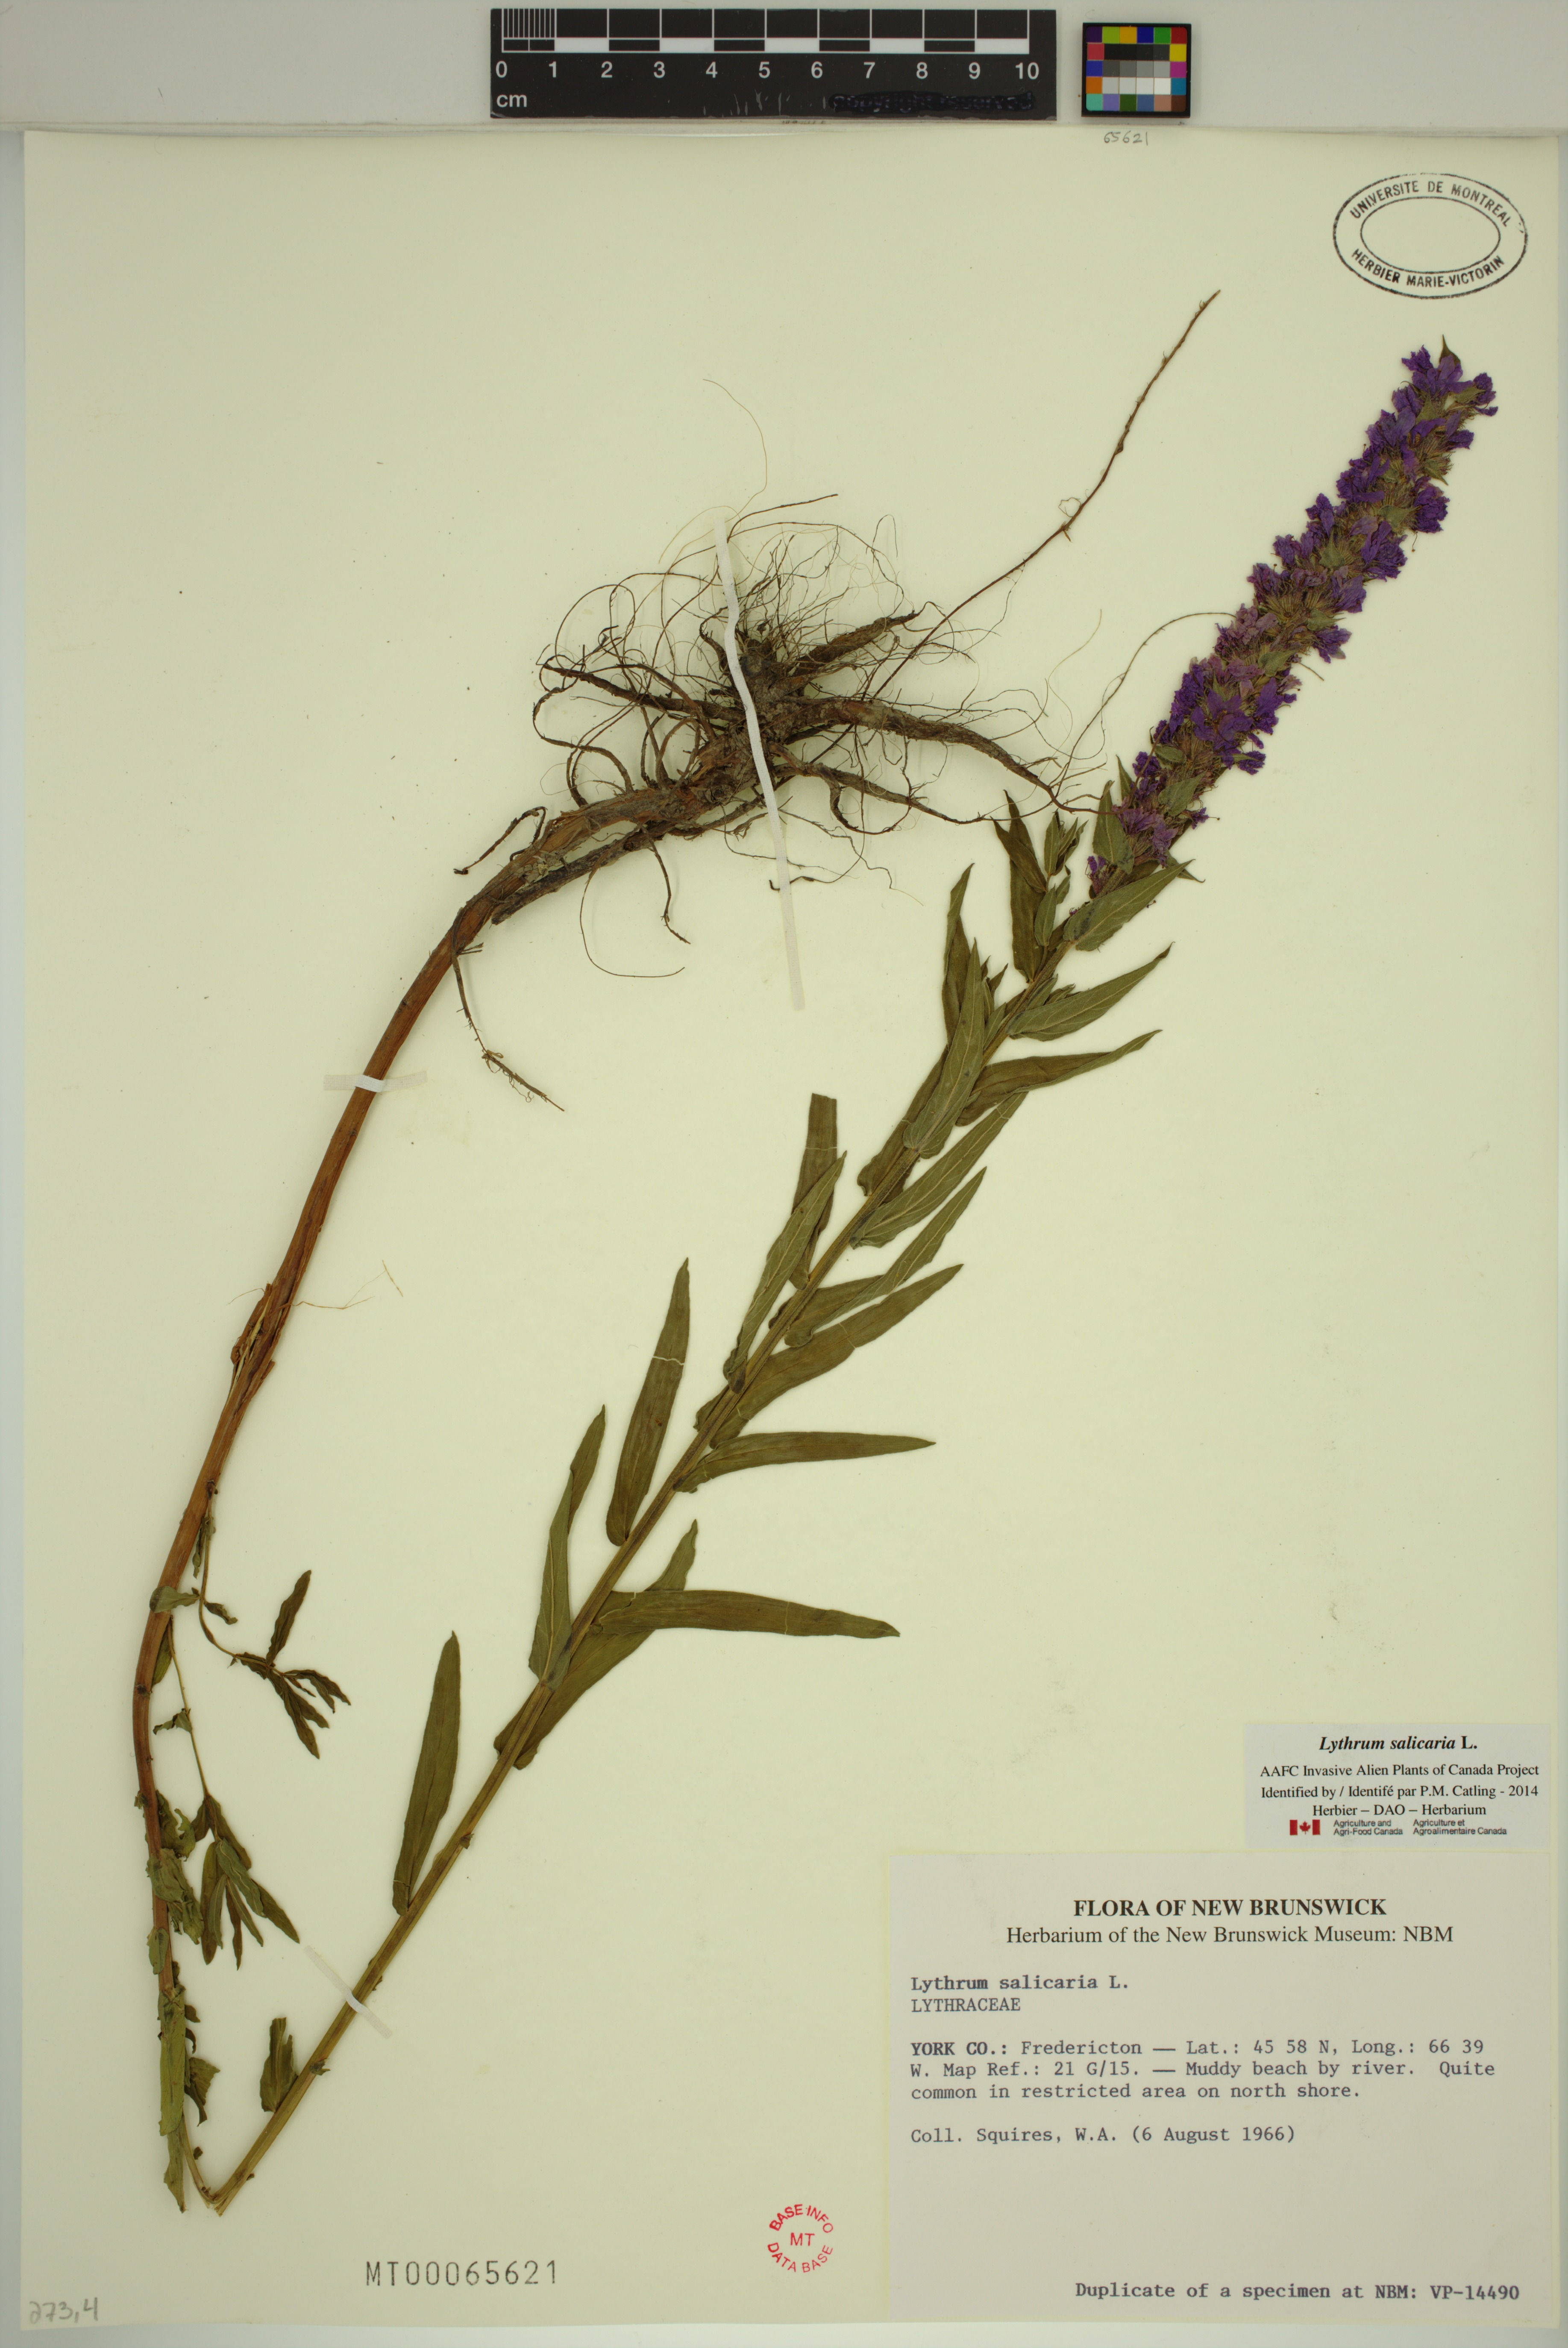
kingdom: Plantae
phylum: Tracheophyta
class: Magnoliopsida
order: Myrtales
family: Lythraceae
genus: Lythrum
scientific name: Lythrum salicaria
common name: Purple loosestrife
